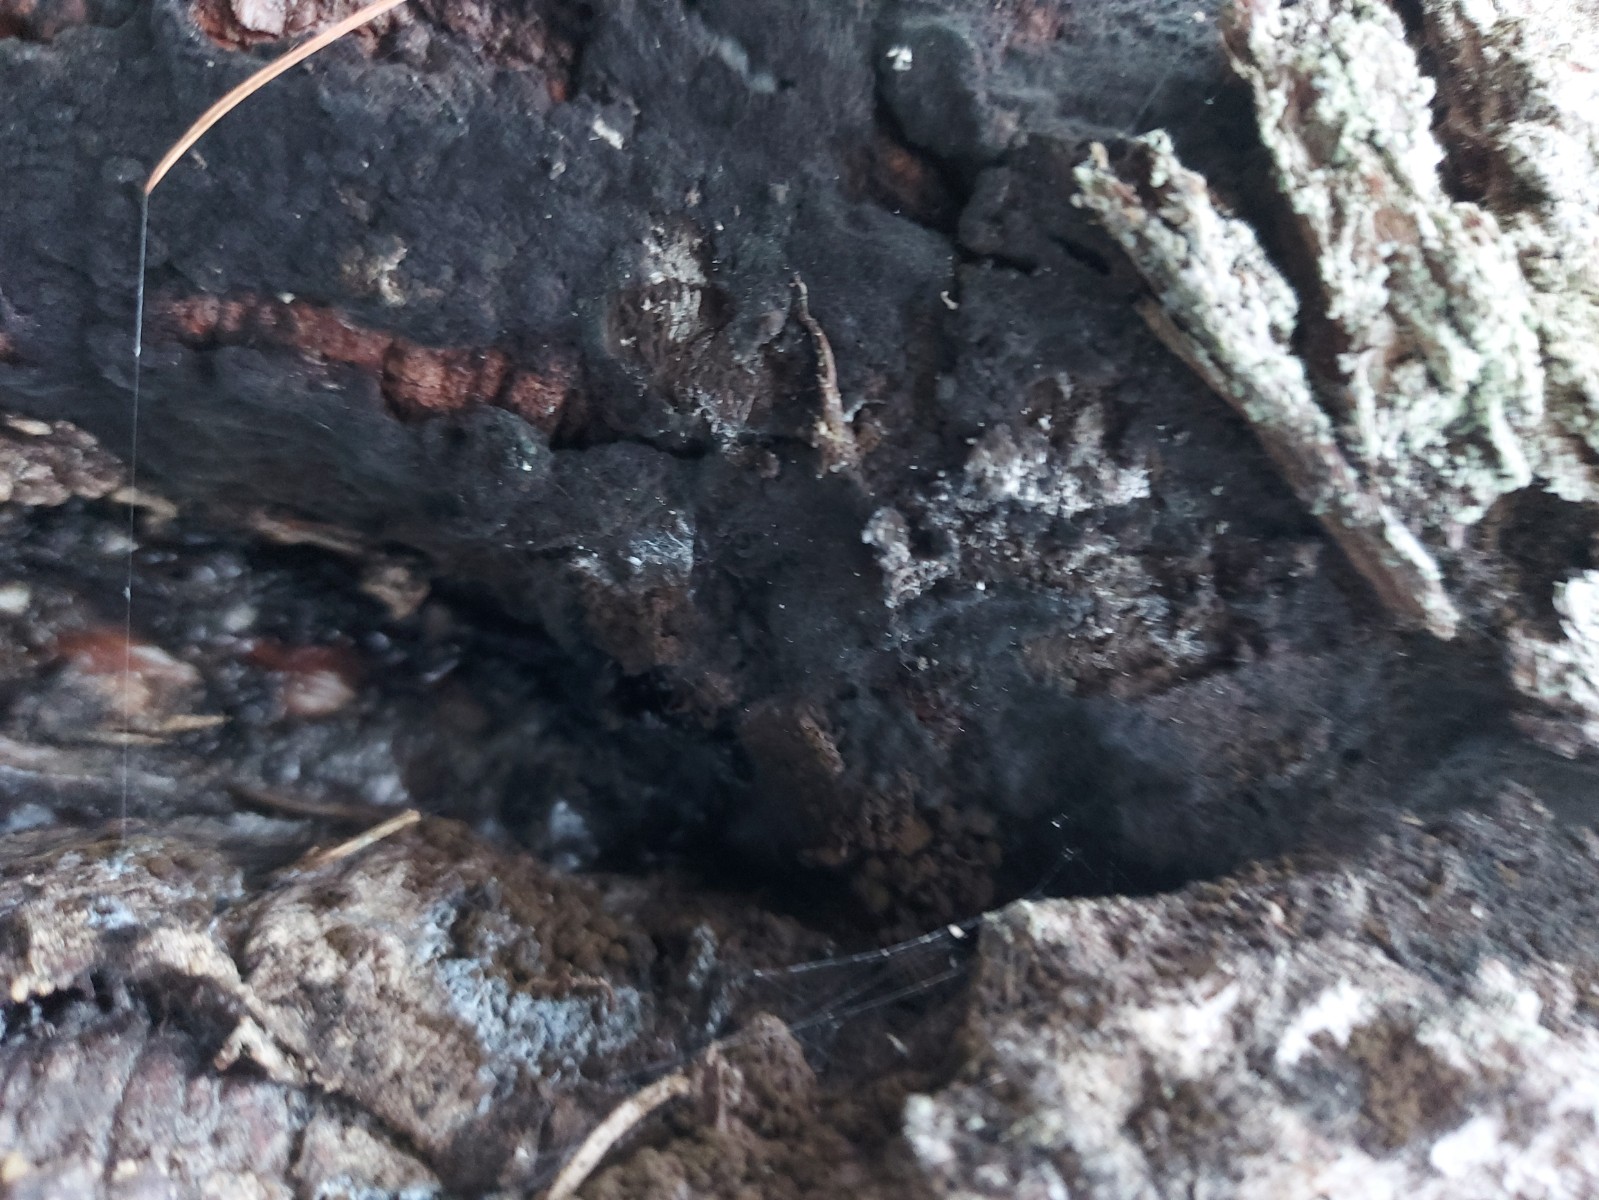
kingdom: Fungi
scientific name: Fungi
